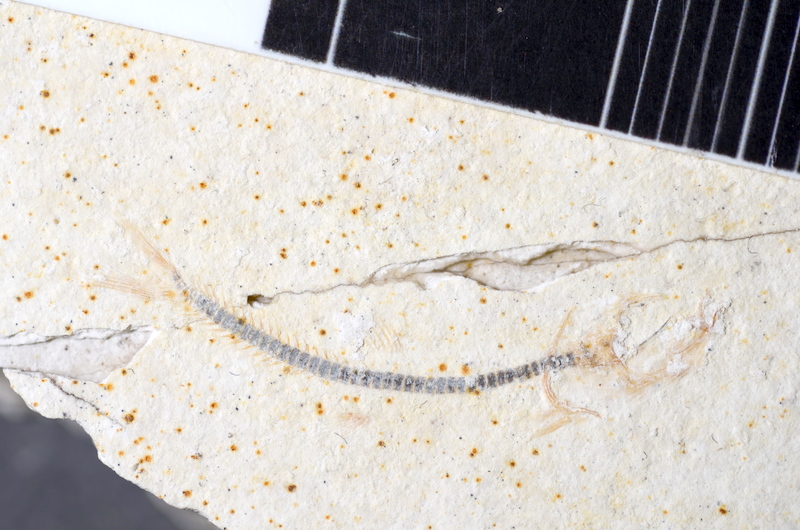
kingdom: Animalia
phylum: Chordata
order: Salmoniformes
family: Orthogonikleithridae
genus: Orthogonikleithrus
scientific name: Orthogonikleithrus hoelli
